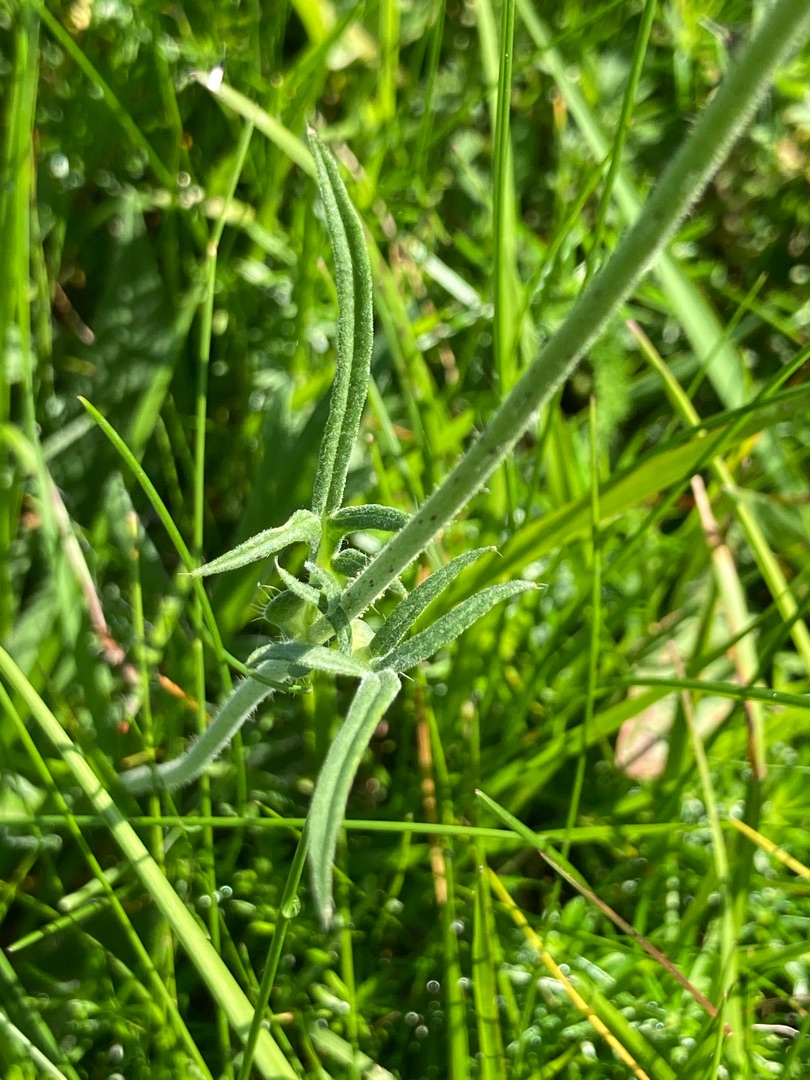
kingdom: Plantae
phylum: Tracheophyta
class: Magnoliopsida
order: Dipsacales
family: Caprifoliaceae
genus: Knautia
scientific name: Knautia arvensis
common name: Blåhat
